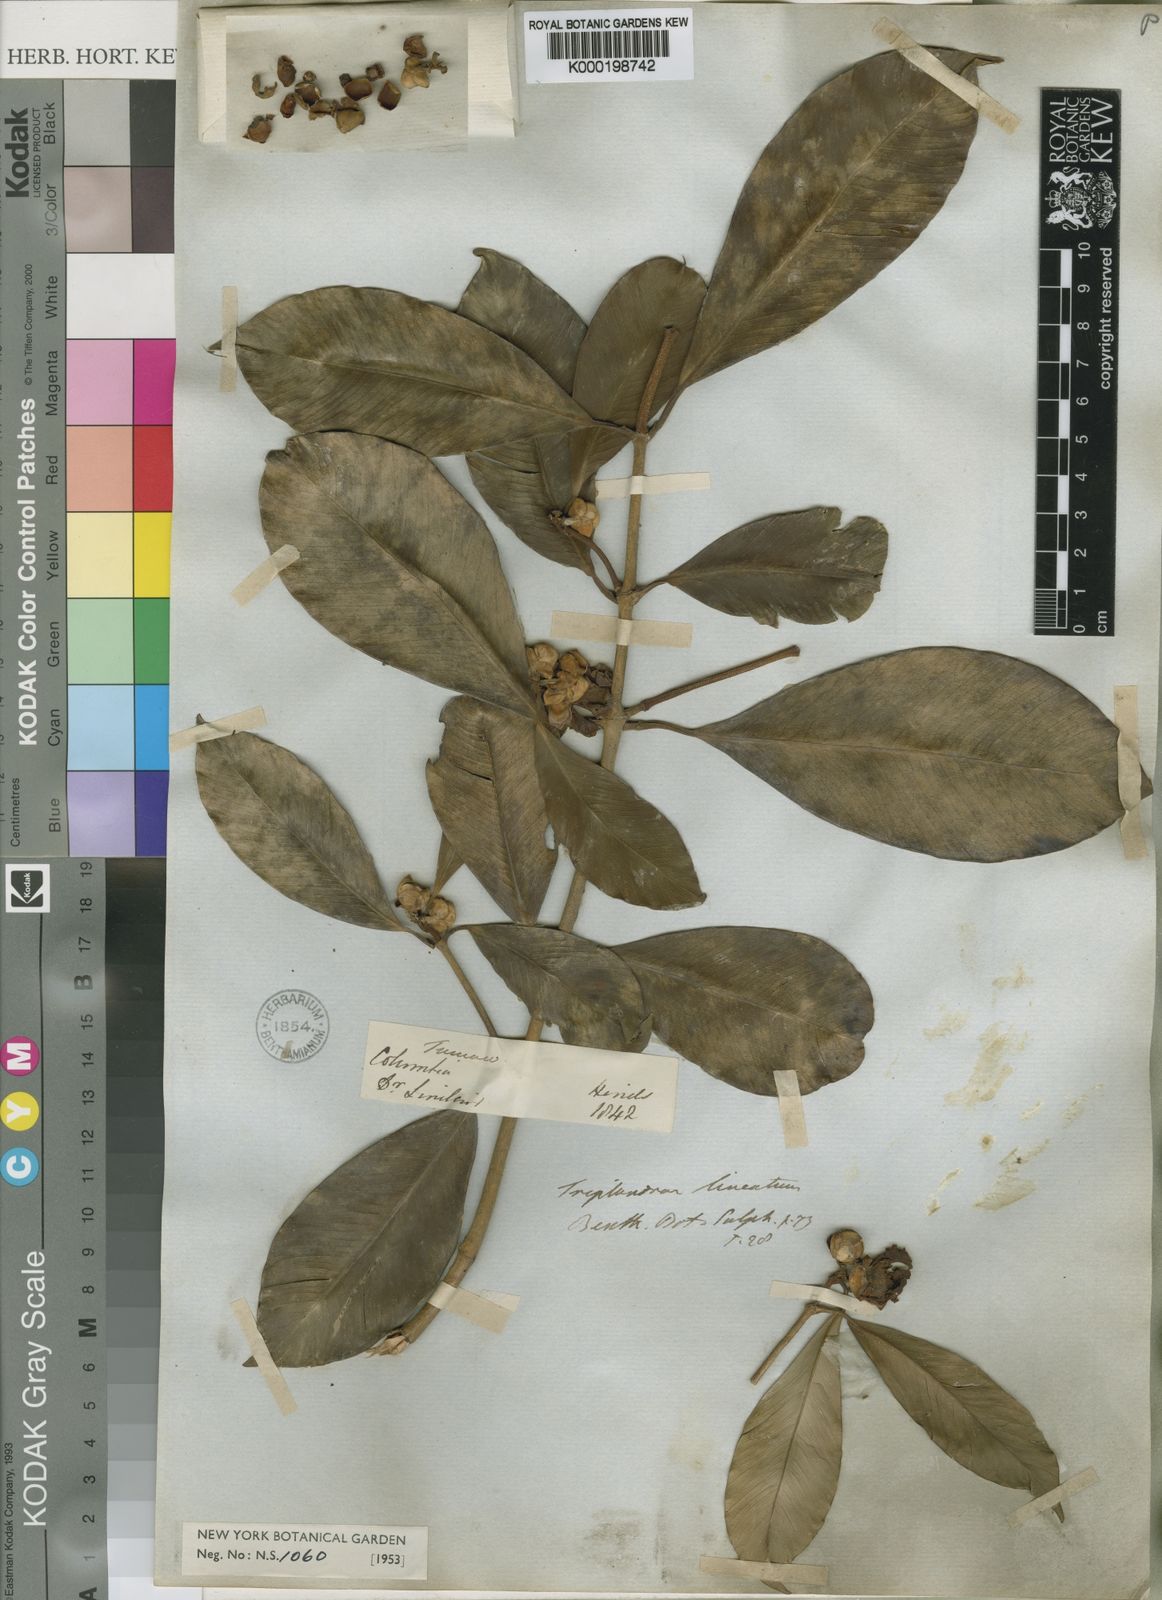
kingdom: Plantae
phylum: Tracheophyta
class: Magnoliopsida
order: Malpighiales
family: Clusiaceae
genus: Clusia
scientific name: Clusia lineata
